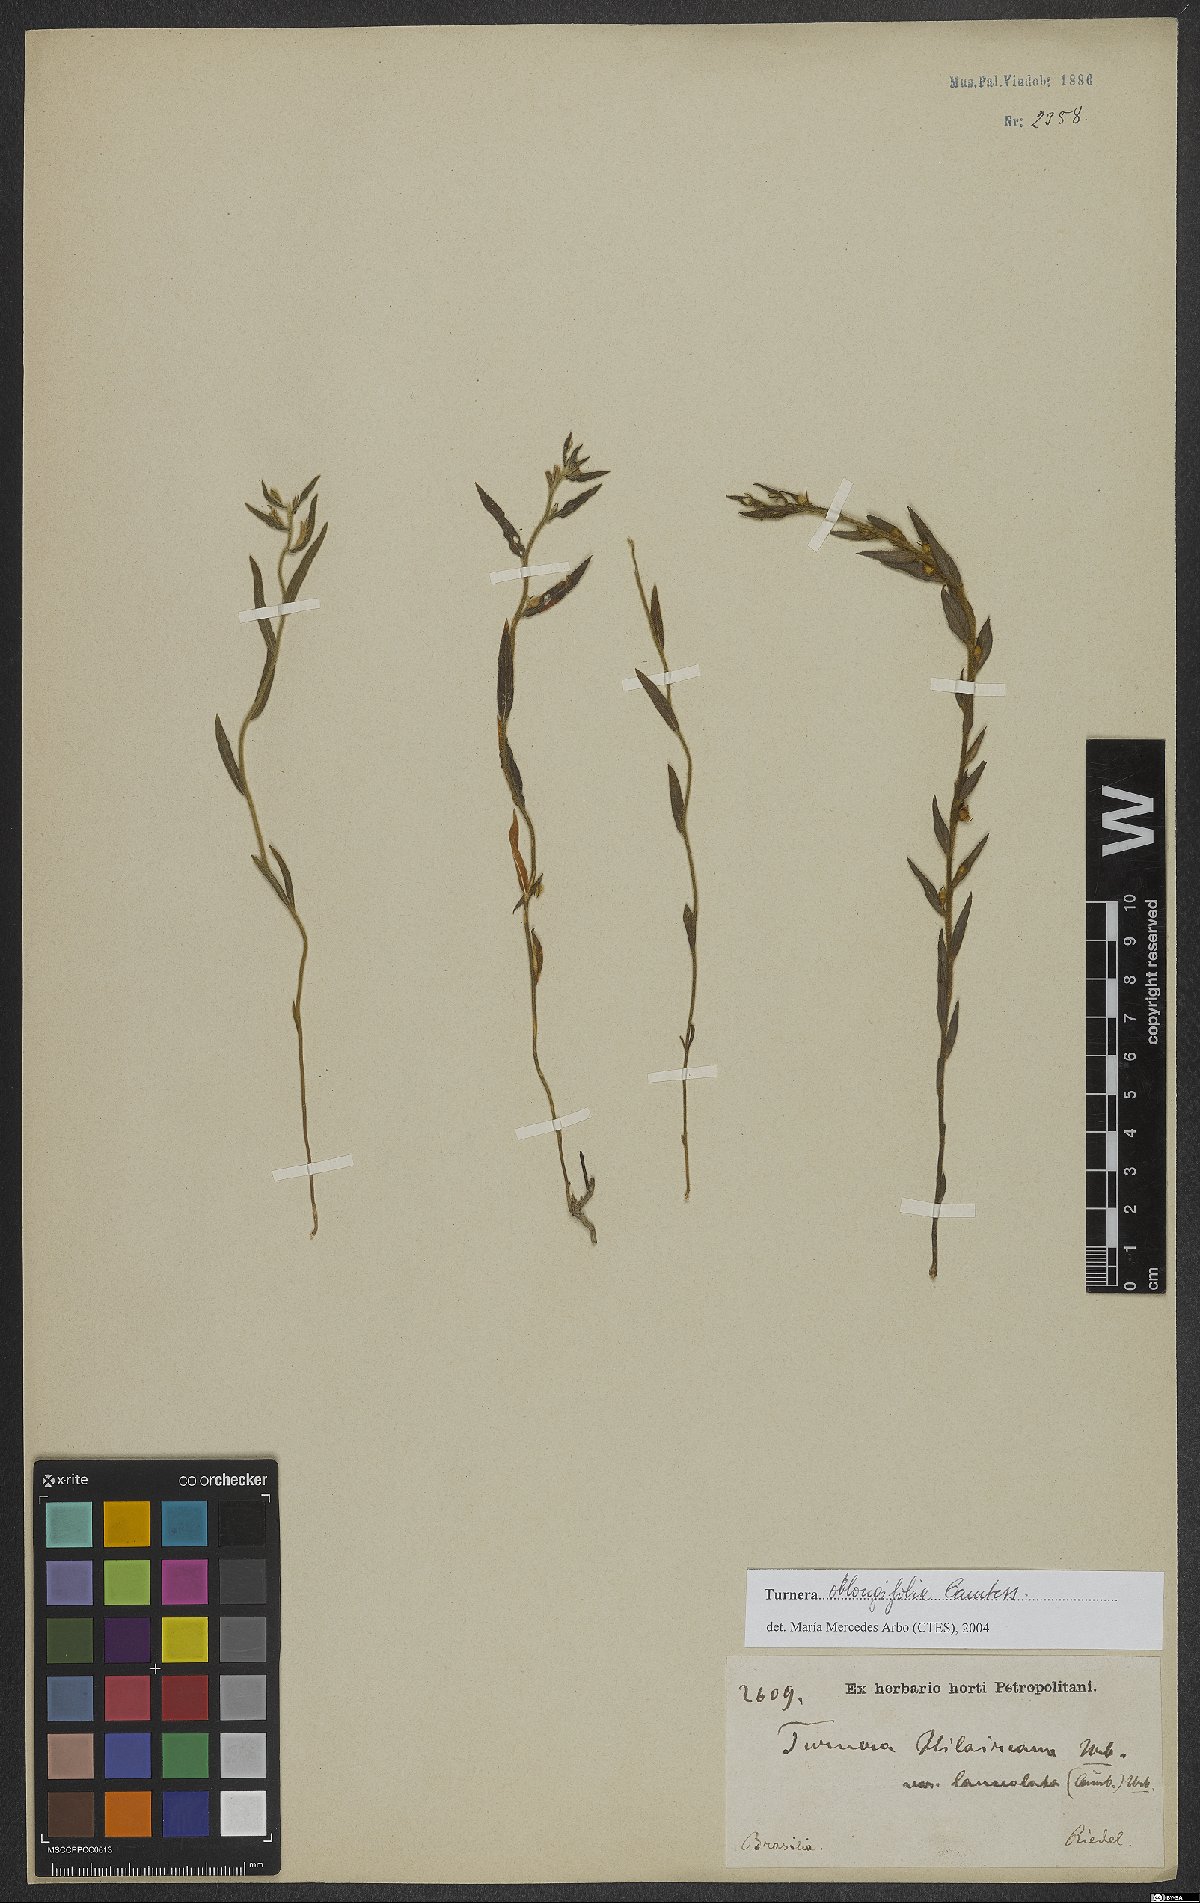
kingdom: Plantae
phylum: Tracheophyta
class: Magnoliopsida
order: Malpighiales
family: Turneraceae
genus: Turnera
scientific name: Turnera oblongifolia
